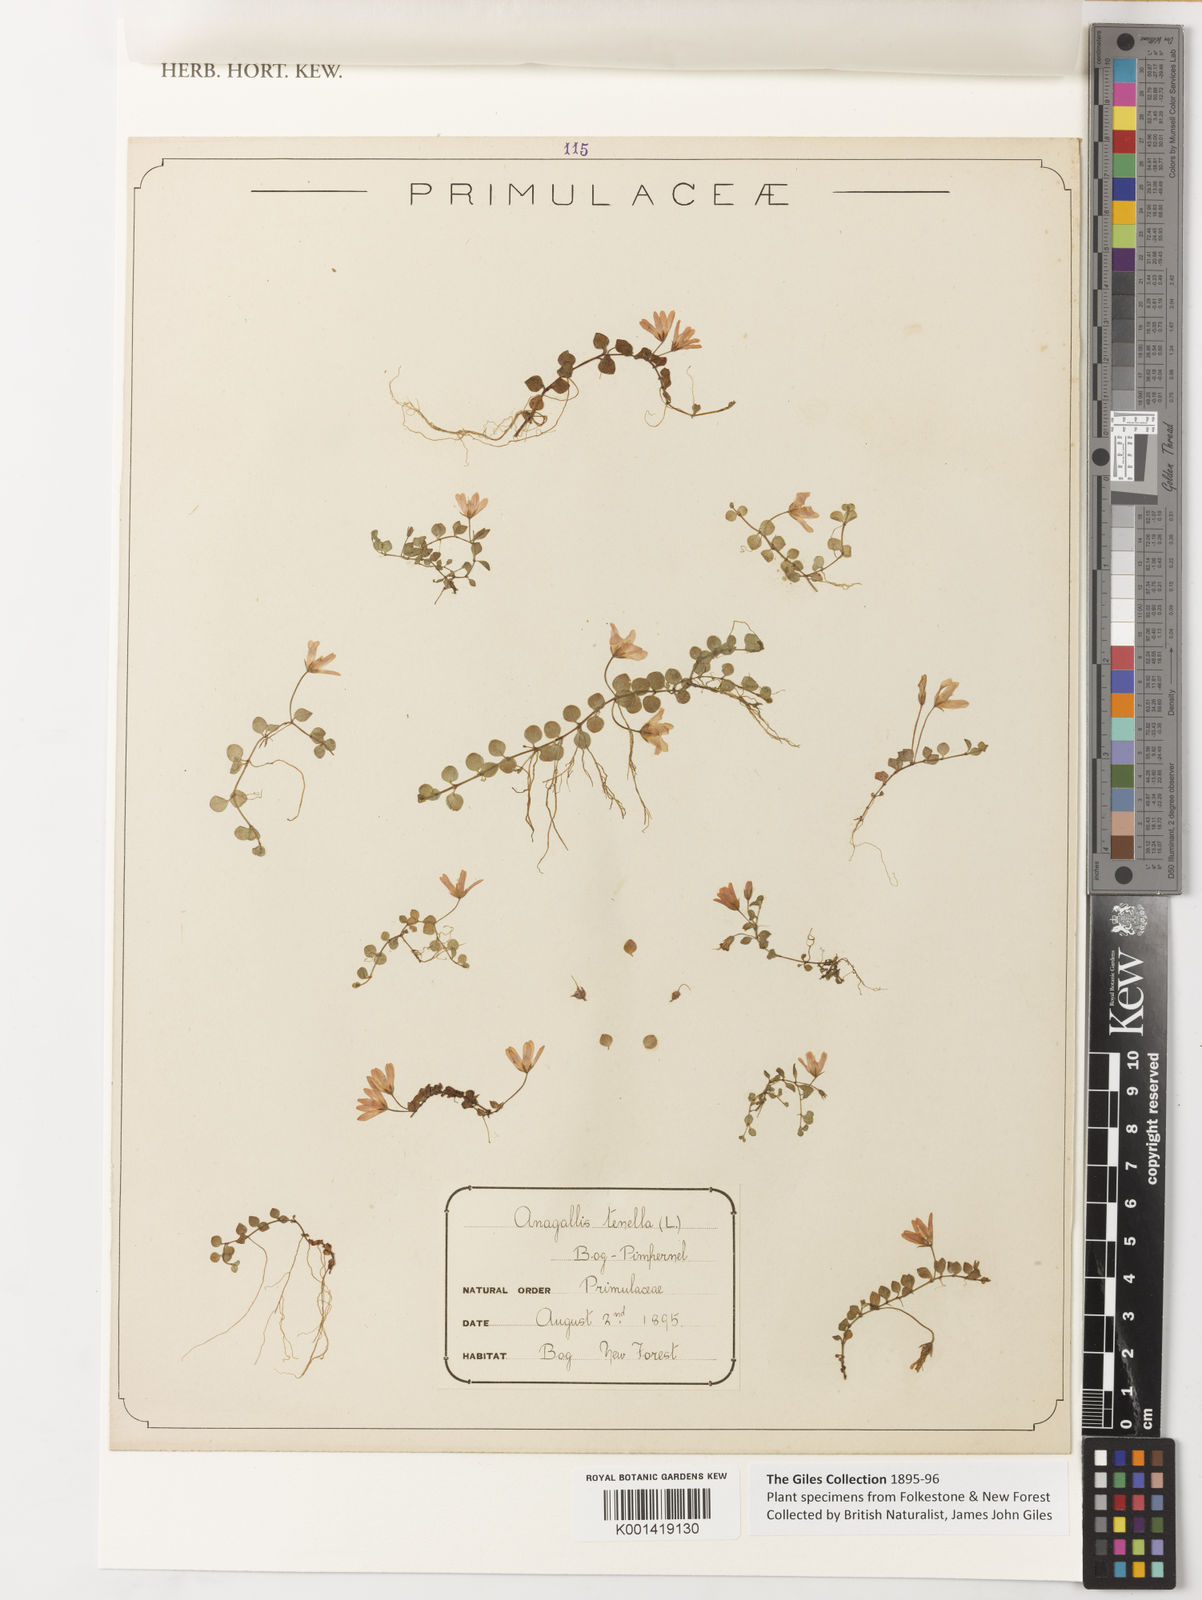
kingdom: Plantae
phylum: Tracheophyta
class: Magnoliopsida
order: Ericales
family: Primulaceae
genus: Lysimachia
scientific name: Lysimachia tenella
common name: European bog pimpernel
